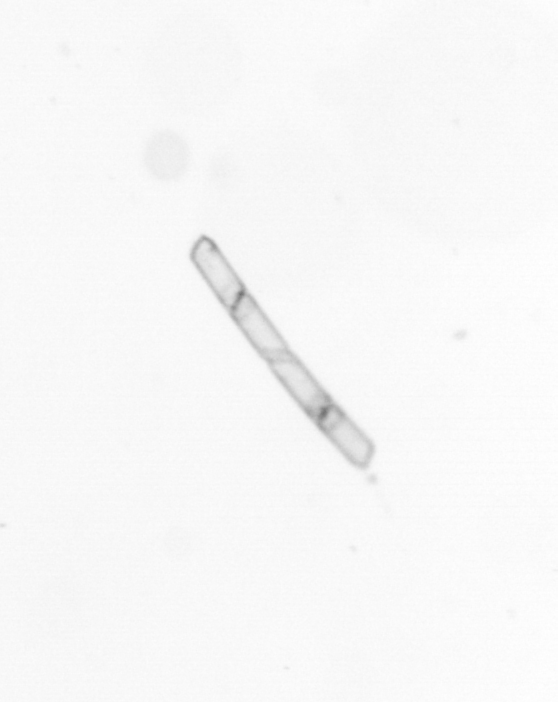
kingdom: Chromista
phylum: Ochrophyta
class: Bacillariophyceae
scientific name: Bacillariophyceae
